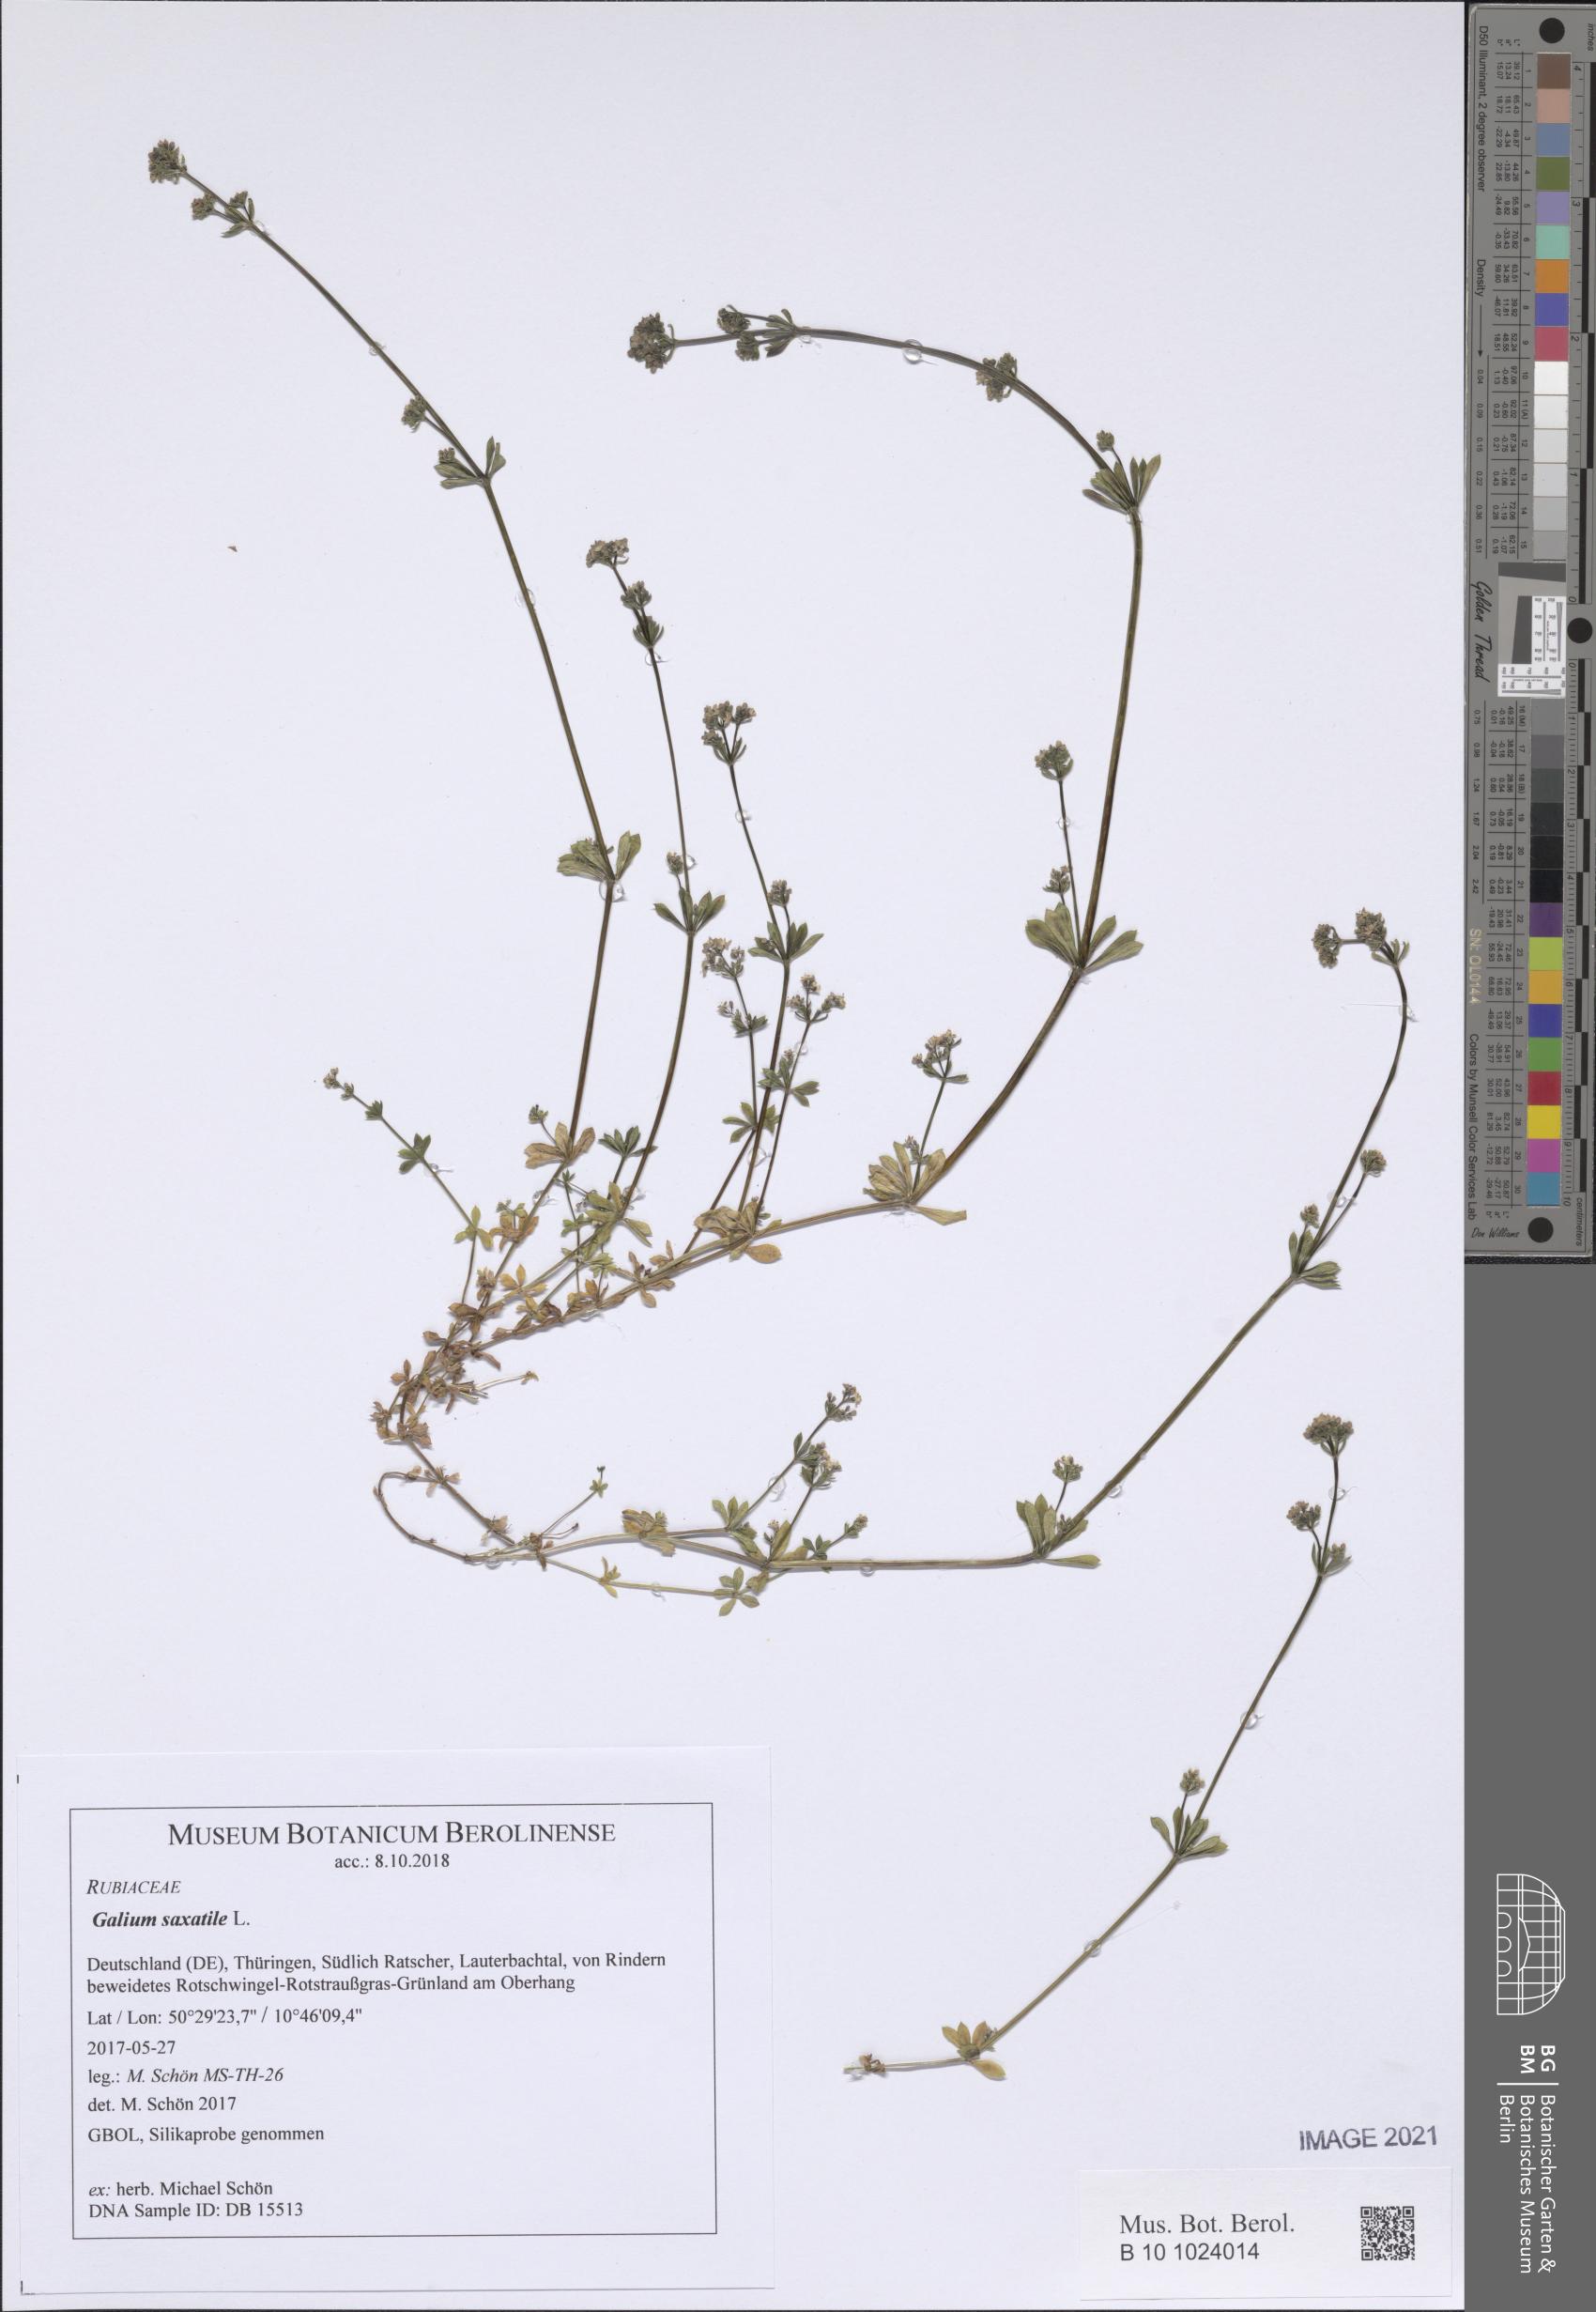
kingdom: Plantae
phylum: Tracheophyta
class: Magnoliopsida
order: Gentianales
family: Rubiaceae
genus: Galium
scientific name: Galium saxatile
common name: Heath bedstraw
